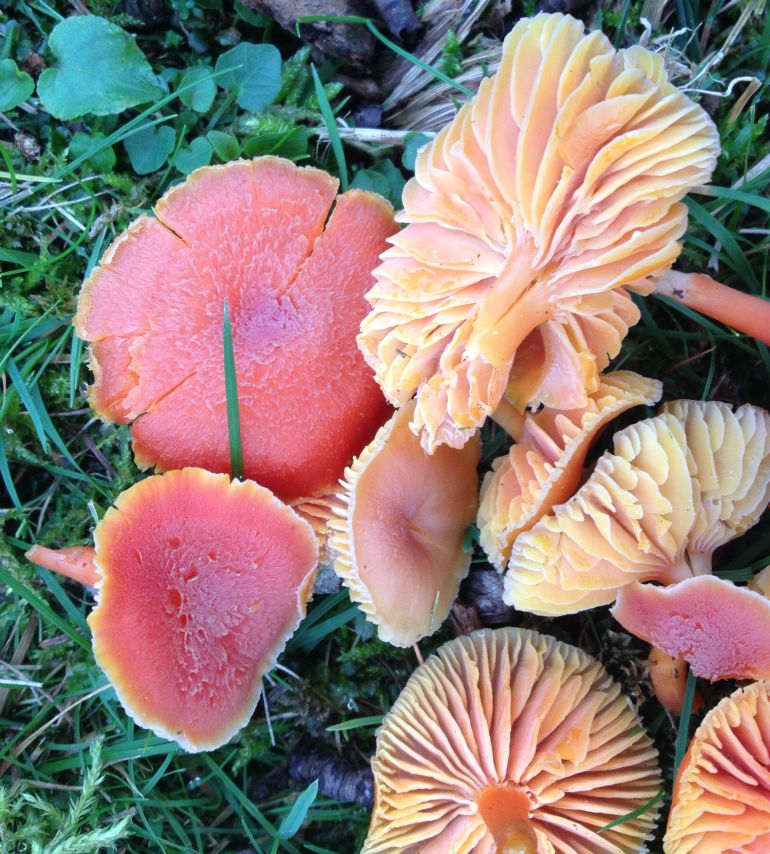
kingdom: Fungi
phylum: Basidiomycota
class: Agaricomycetes
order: Agaricales
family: Hygrophoraceae
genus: Hygrocybe
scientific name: Hygrocybe miniata
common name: mønje-vokshat
